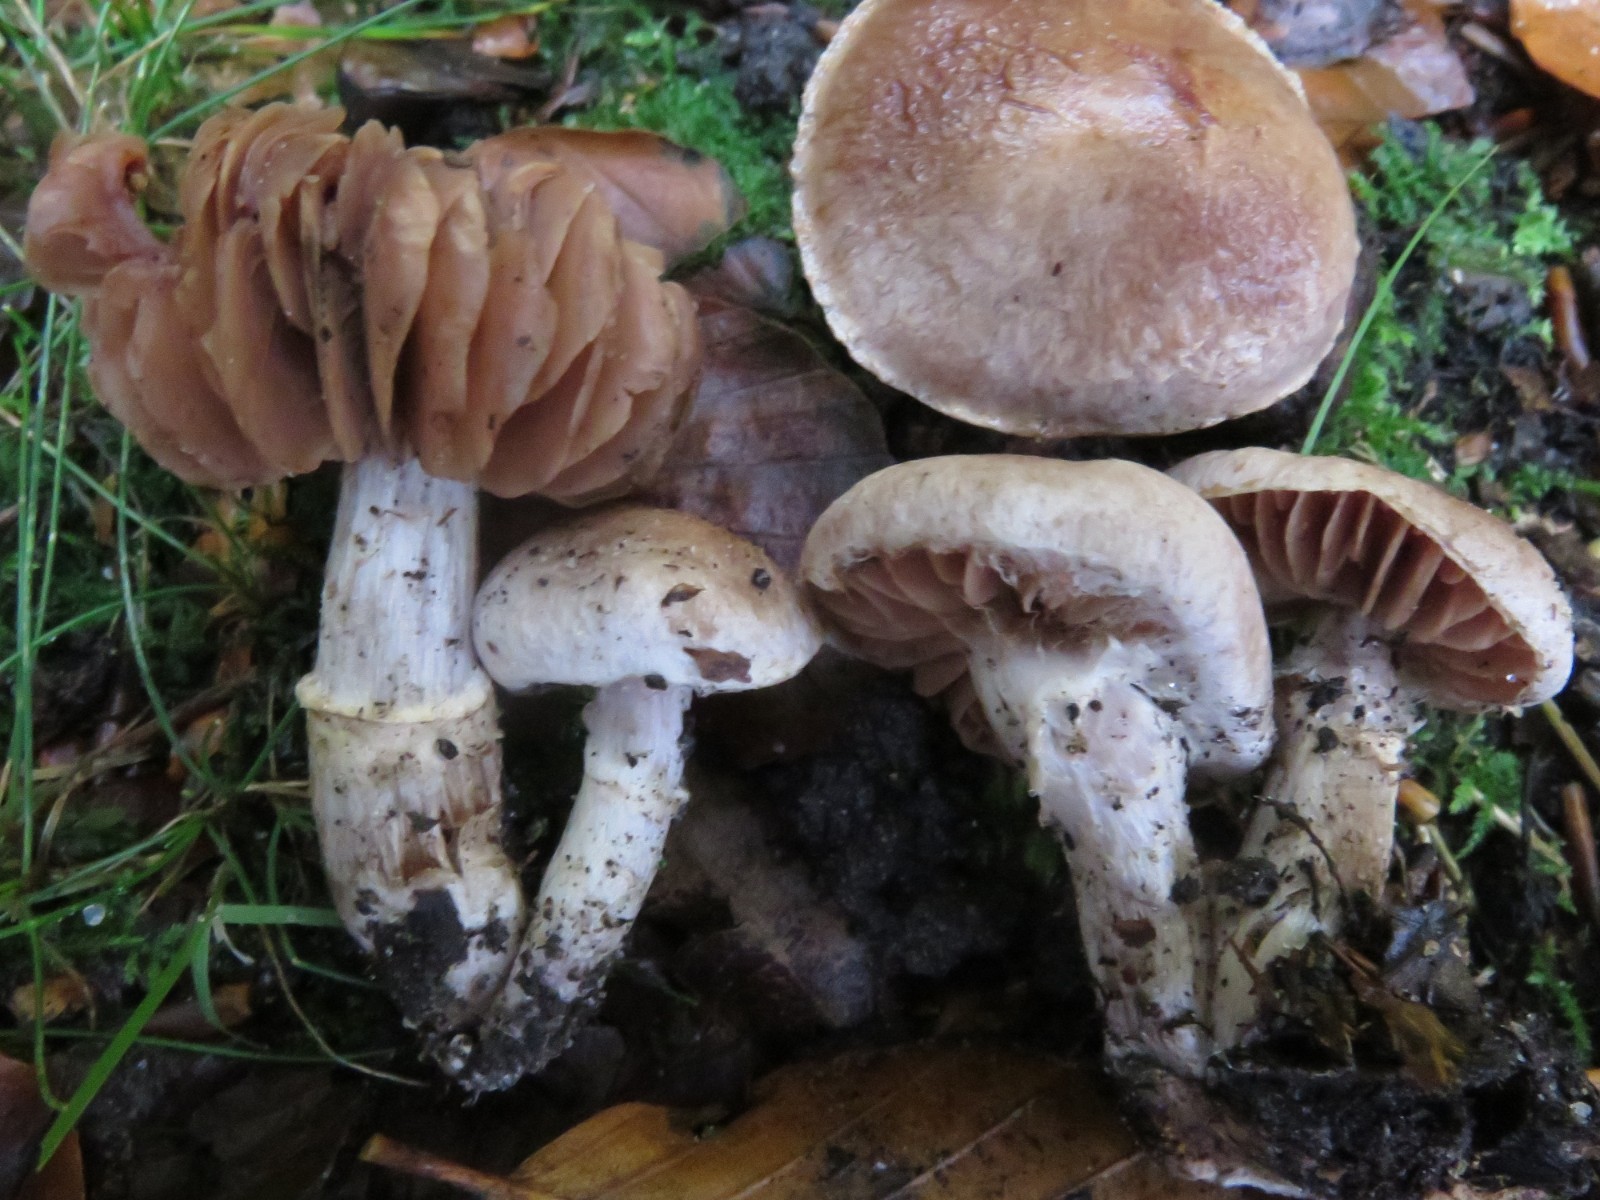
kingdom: Fungi
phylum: Basidiomycota
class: Agaricomycetes
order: Agaricales
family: Cortinariaceae
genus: Cortinarius
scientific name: Cortinarius torvus
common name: champignonagtig slørhat
